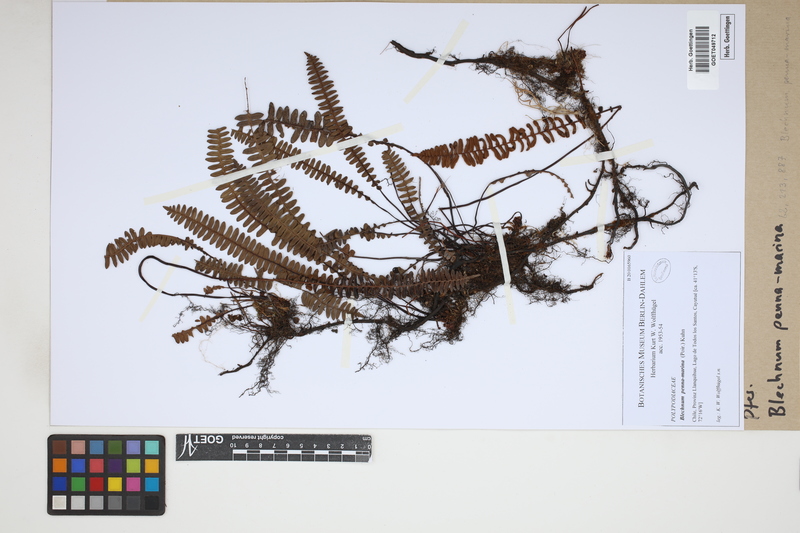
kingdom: Plantae
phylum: Tracheophyta
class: Polypodiopsida
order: Polypodiales
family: Blechnaceae
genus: Austroblechnum
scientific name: Austroblechnum penna-marina
